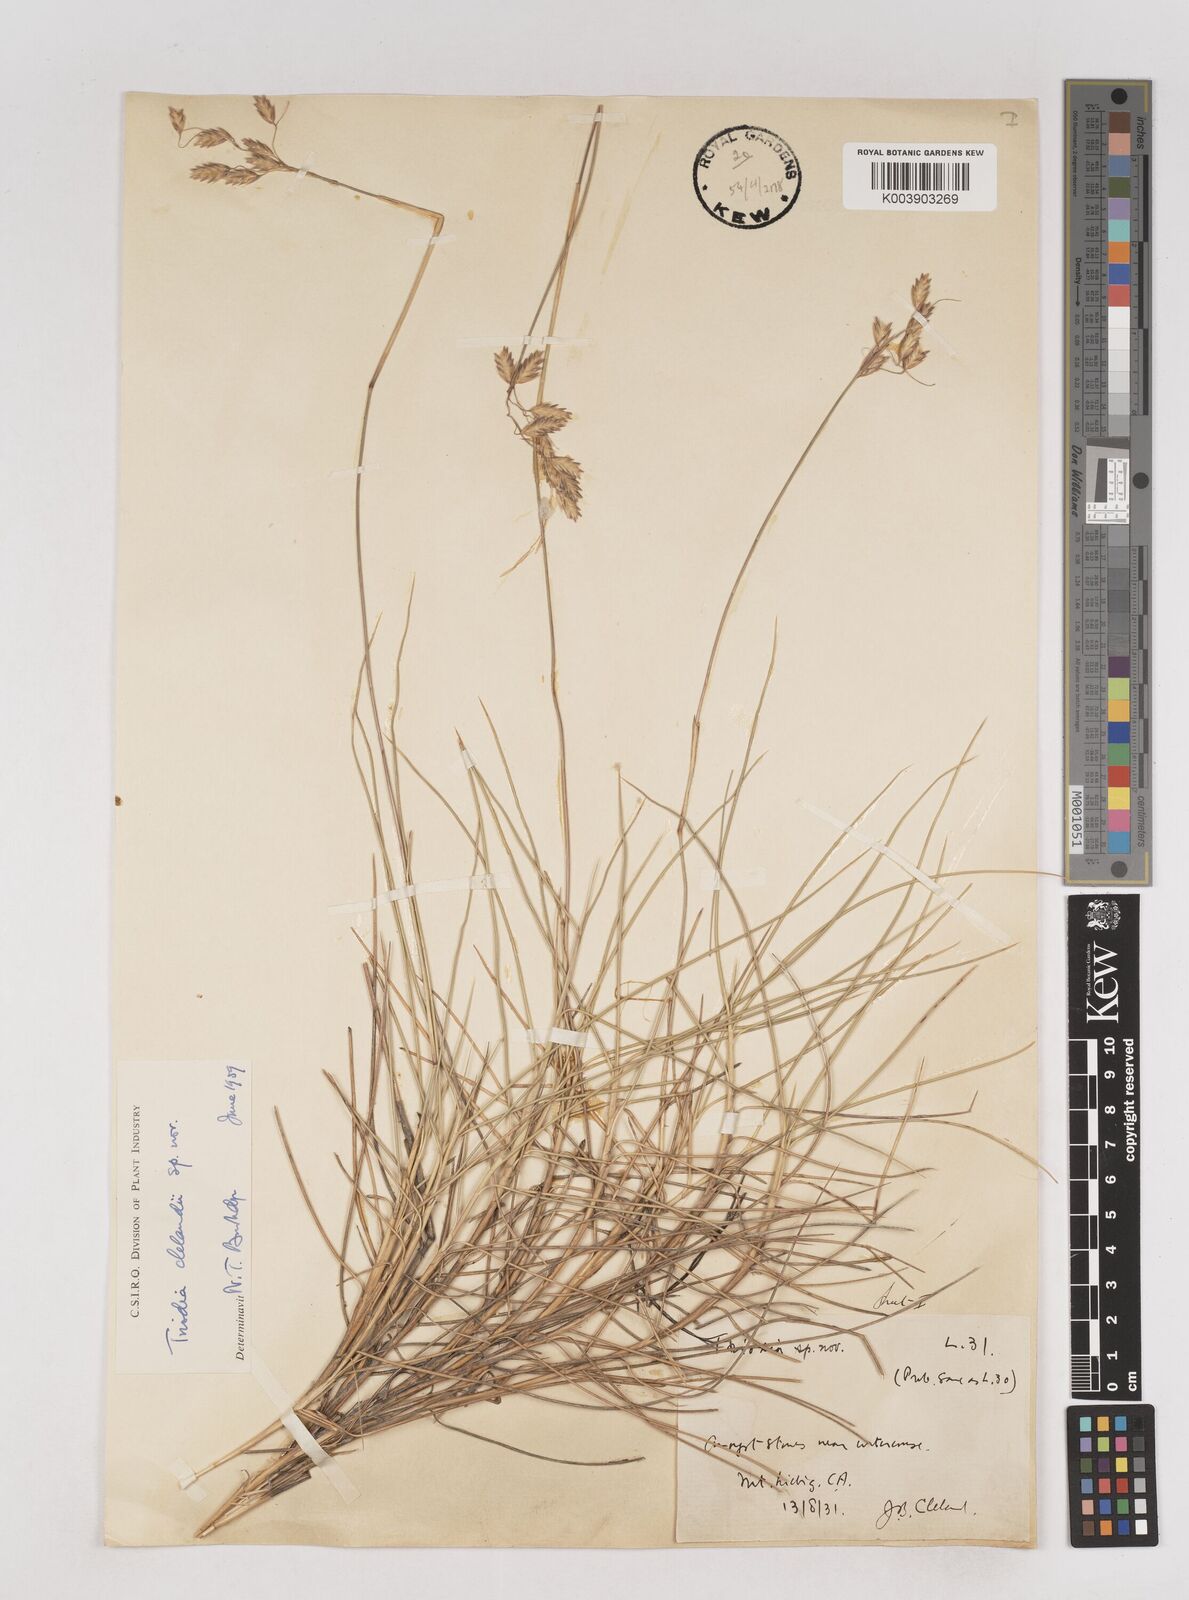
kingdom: Plantae
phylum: Tracheophyta
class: Liliopsida
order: Poales
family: Poaceae
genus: Triodia
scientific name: Triodia brizoides
